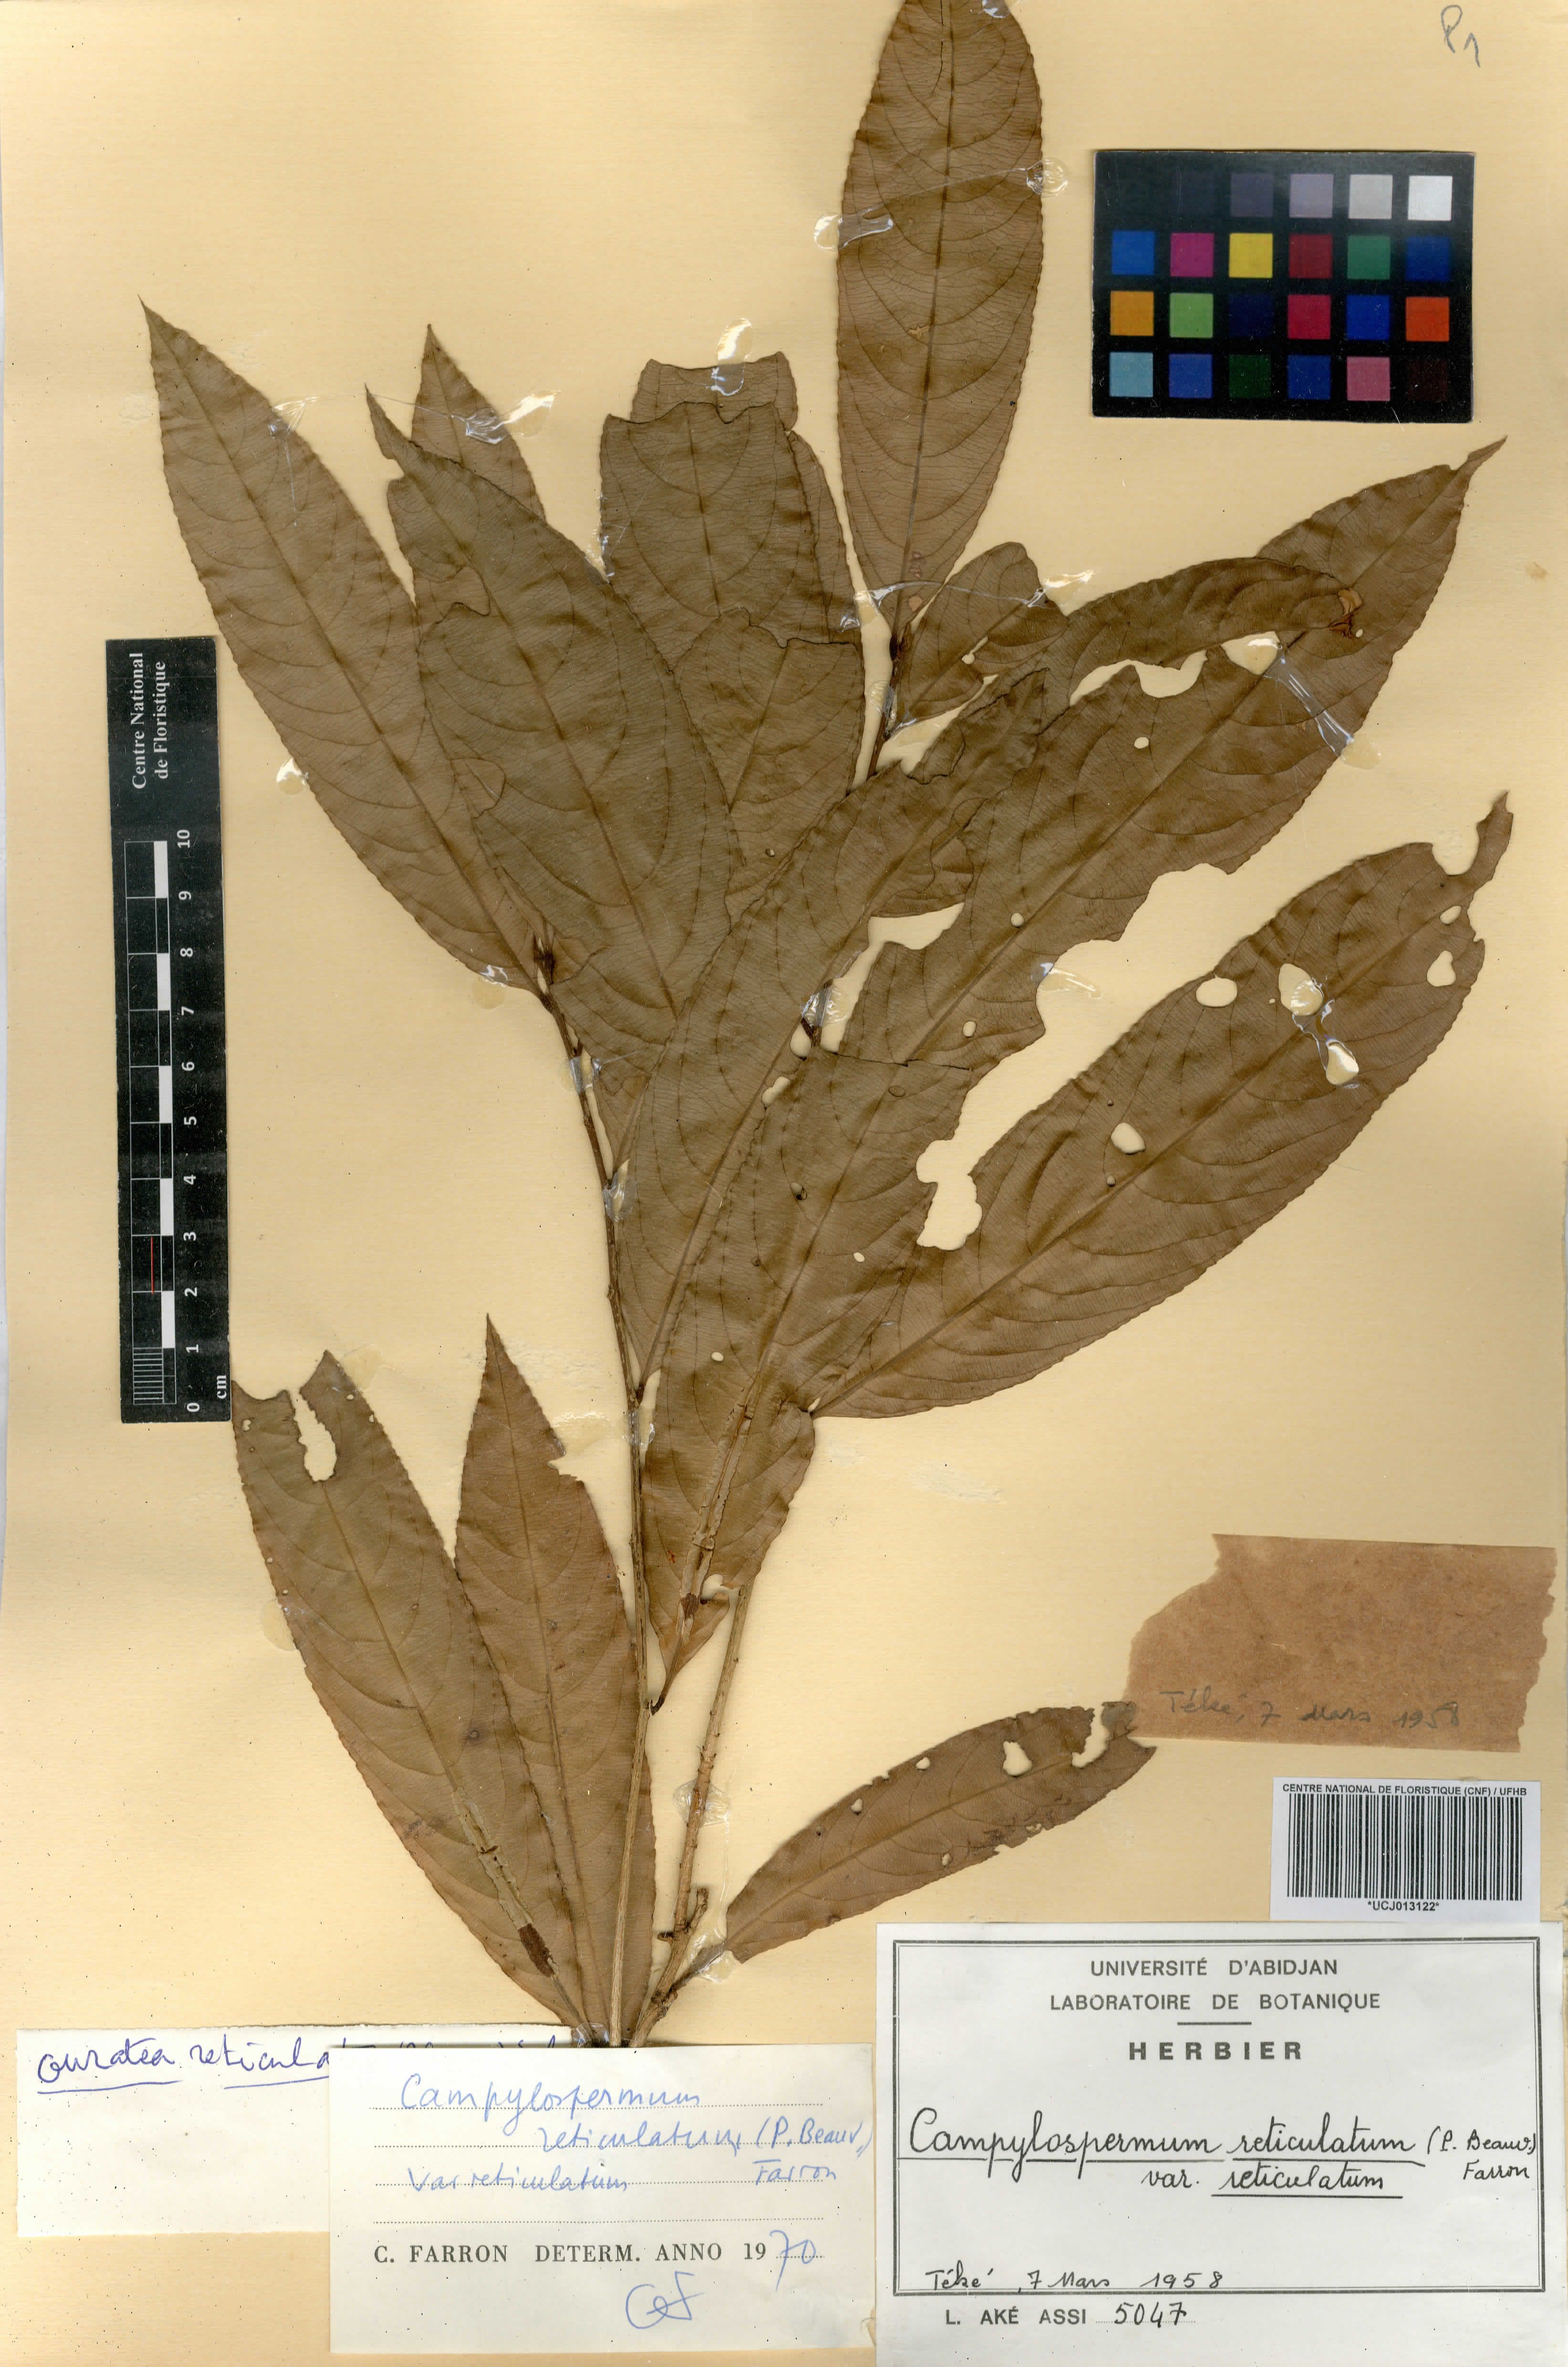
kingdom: Plantae
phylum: Tracheophyta
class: Magnoliopsida
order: Malpighiales
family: Ochnaceae
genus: Campylospermum
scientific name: Campylospermum reticulatum
